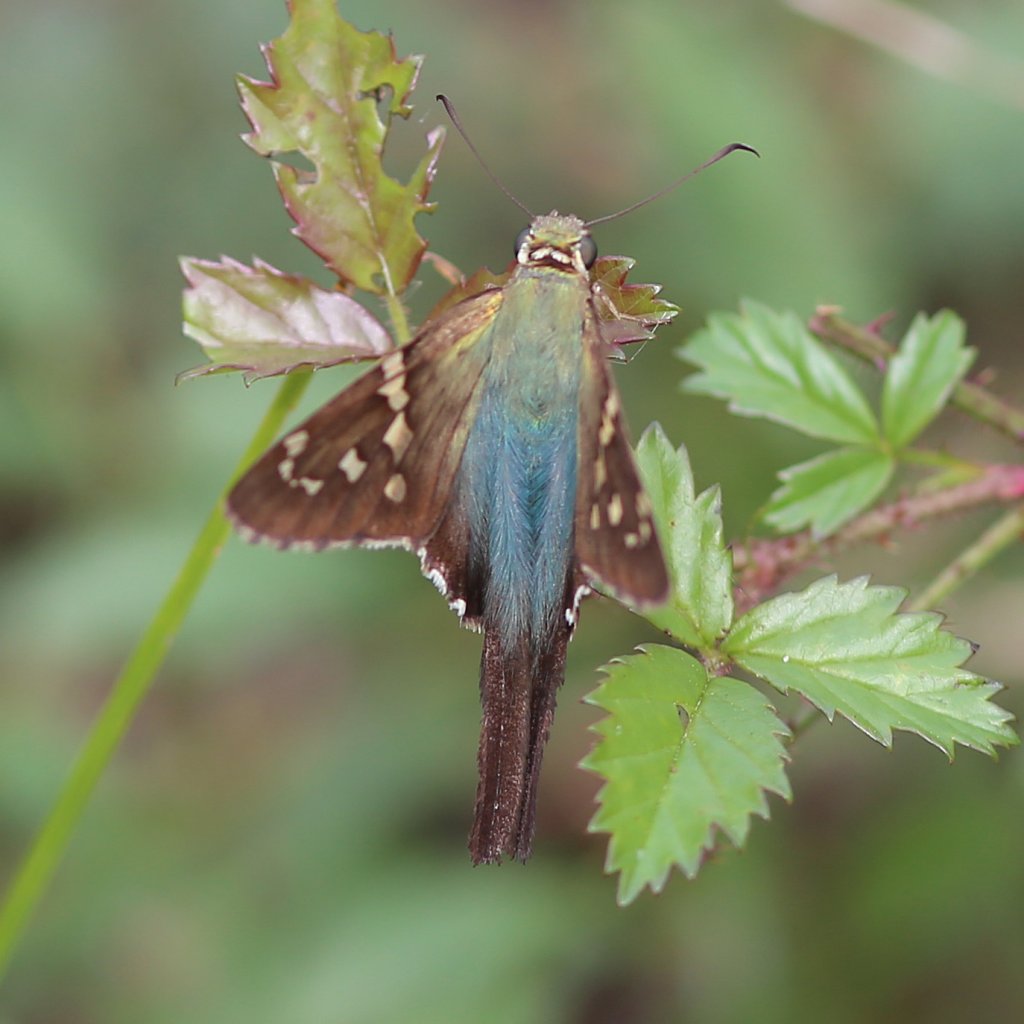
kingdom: Animalia
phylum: Arthropoda
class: Insecta
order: Lepidoptera
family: Hesperiidae
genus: Urbanus
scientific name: Urbanus proteus
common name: Long-tailed Skipper
